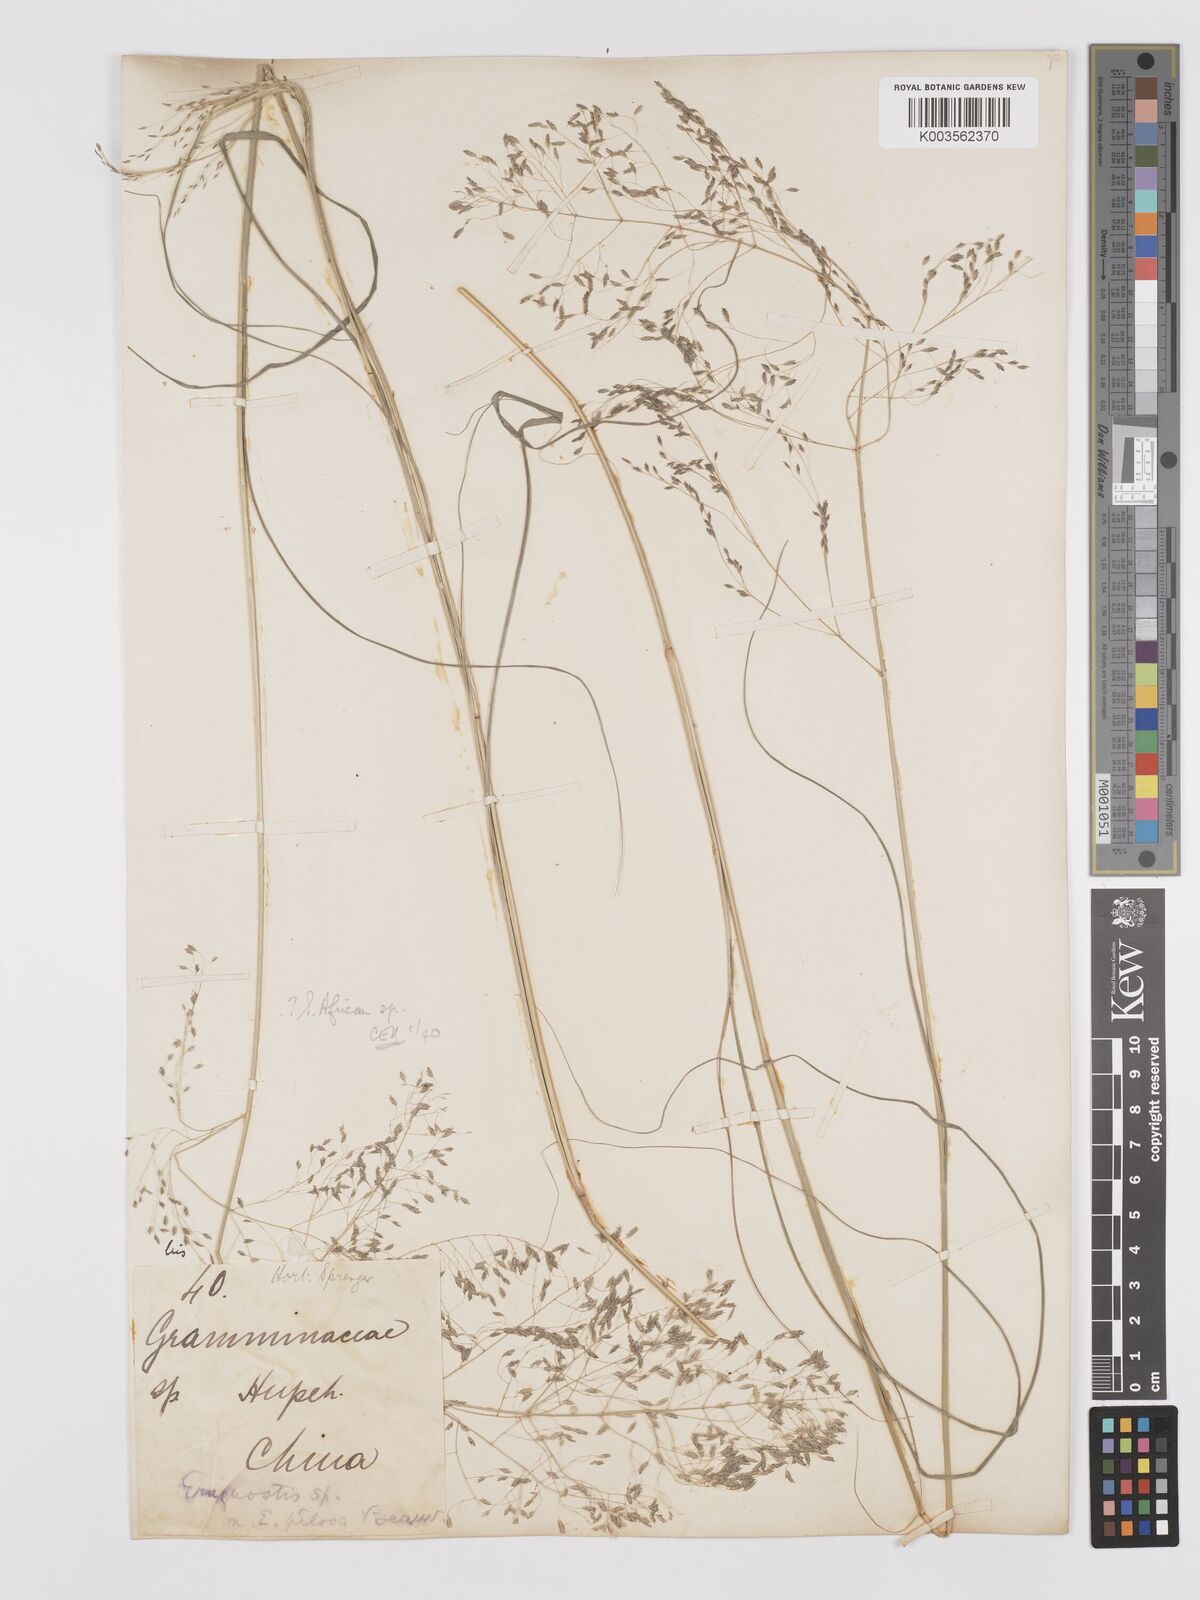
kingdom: Plantae
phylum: Tracheophyta
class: Liliopsida
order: Poales
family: Poaceae
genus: Eragrostis
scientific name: Eragrostis
